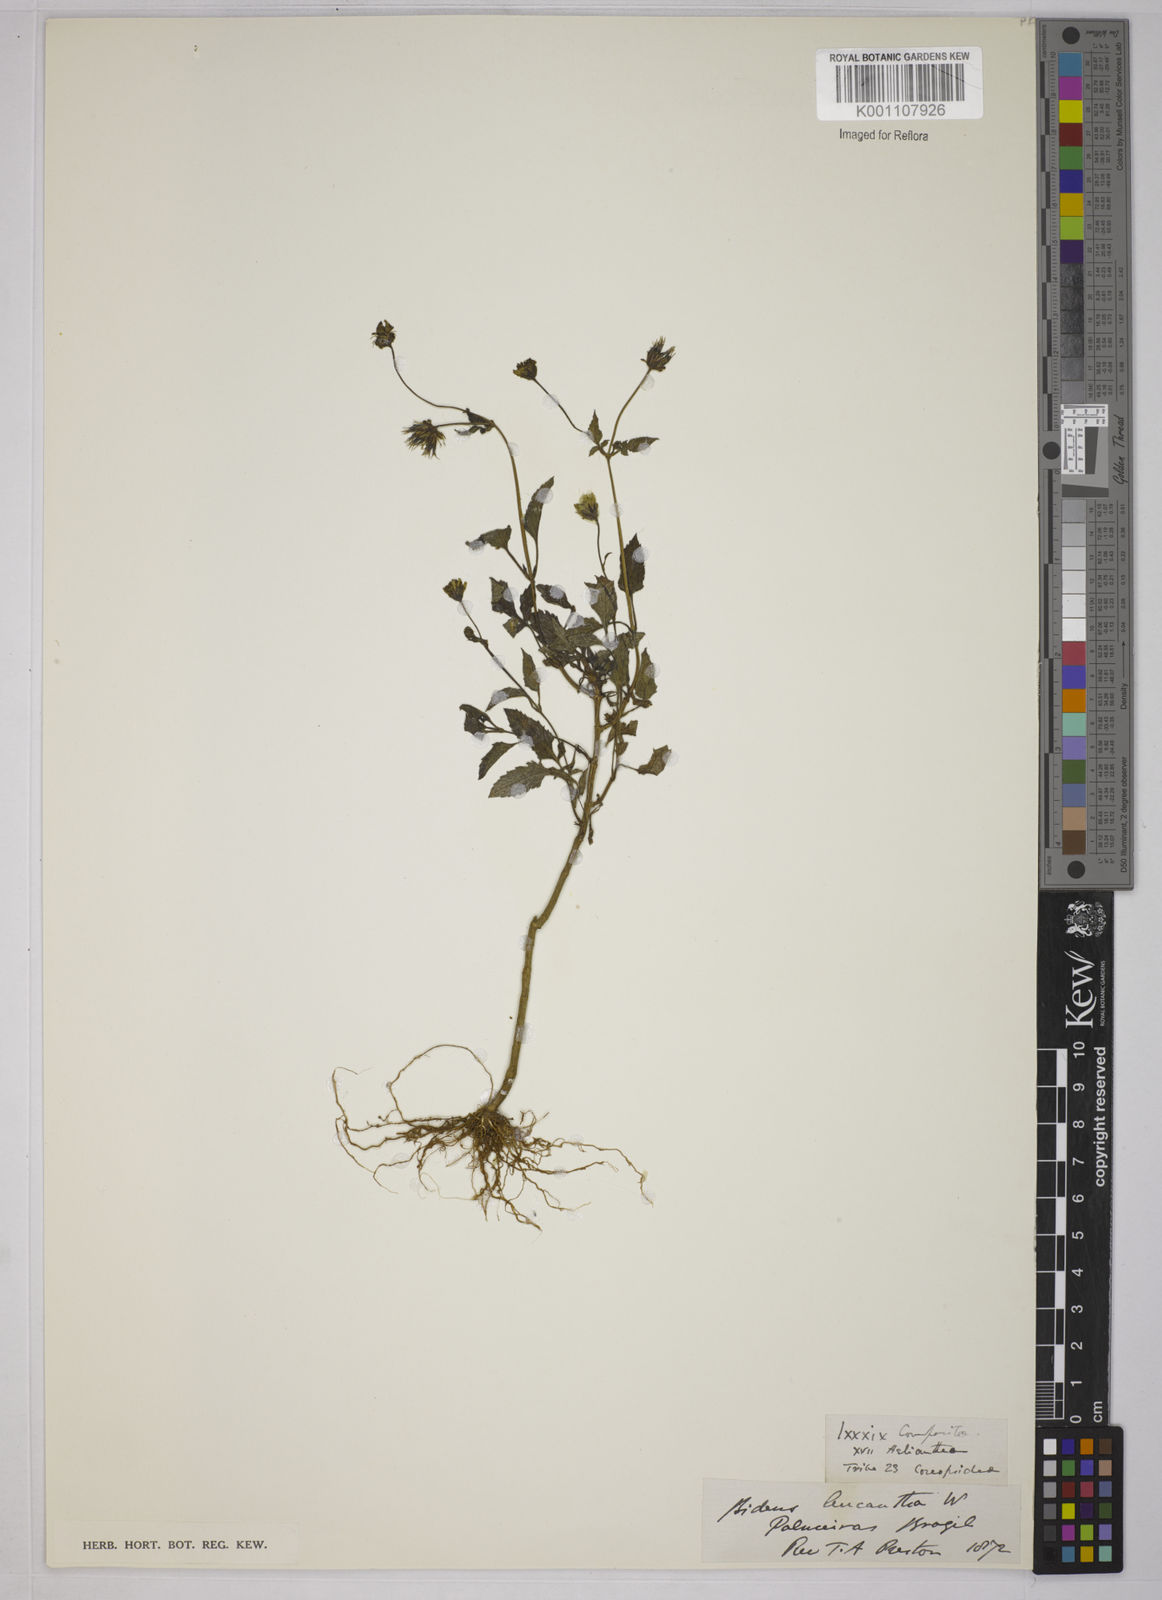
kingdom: Plantae
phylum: Tracheophyta
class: Magnoliopsida
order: Asterales
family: Asteraceae
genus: Bidens
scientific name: Bidens
